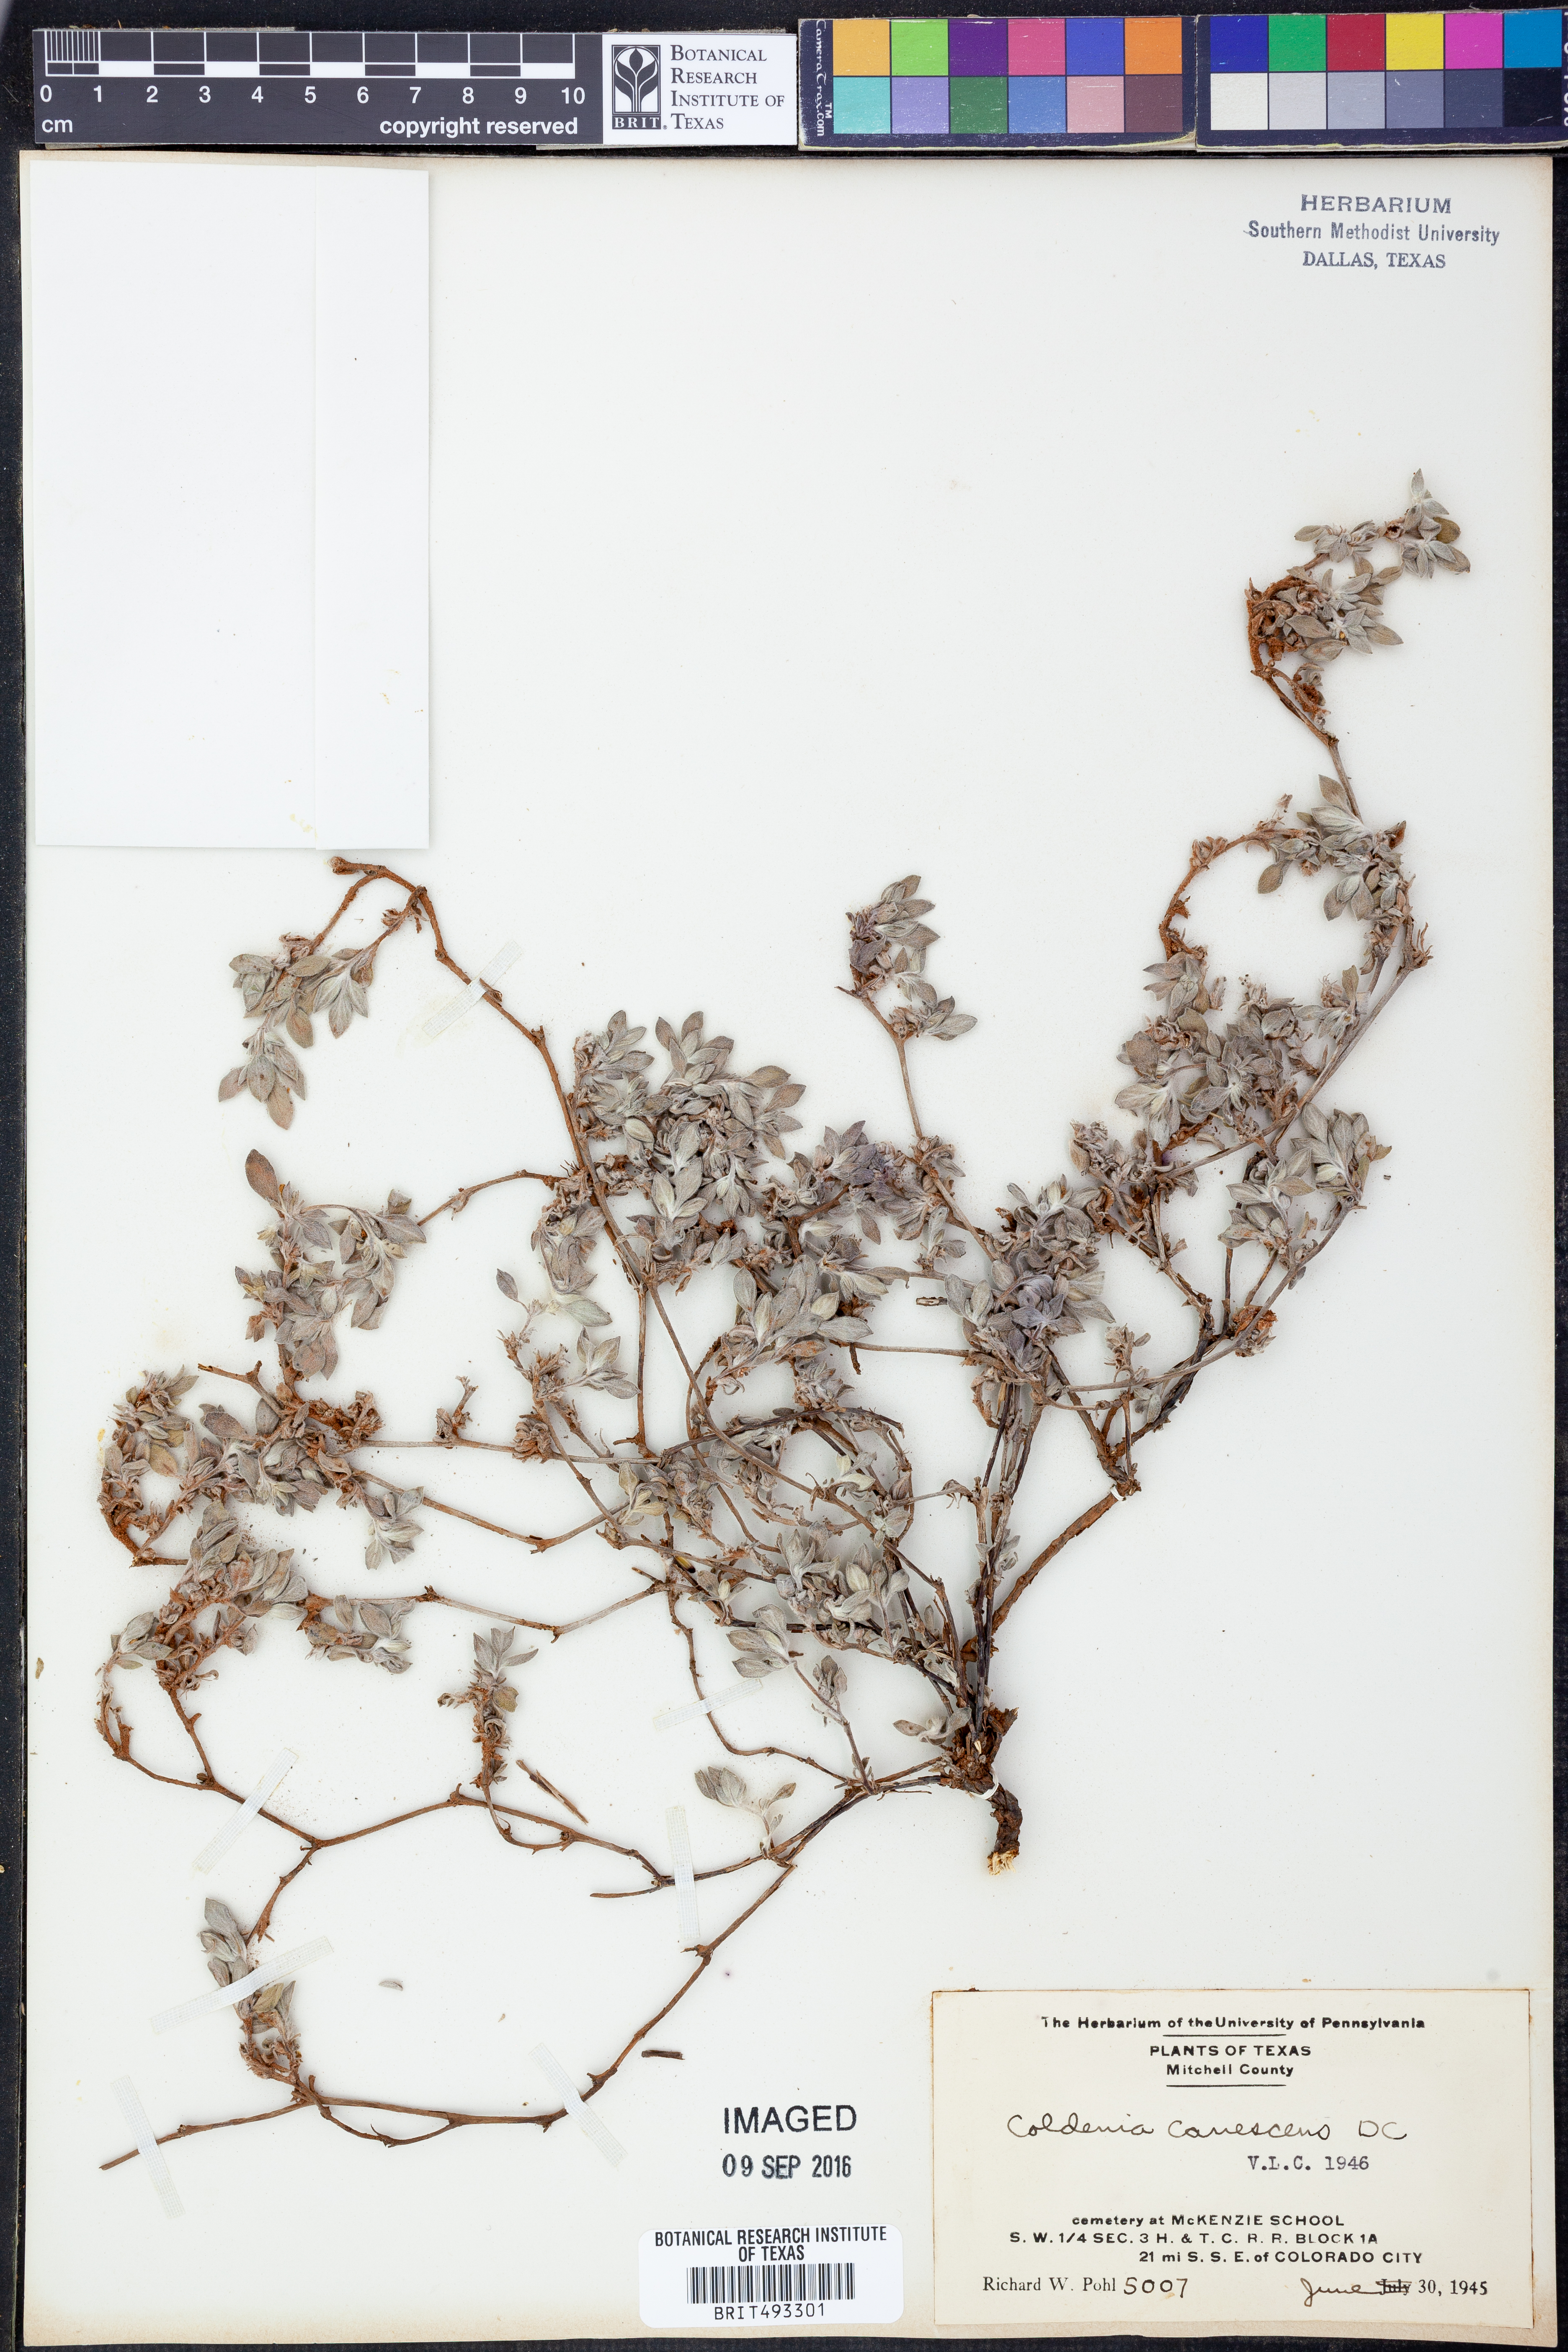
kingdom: Plantae
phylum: Tracheophyta
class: Magnoliopsida
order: Boraginales
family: Ehretiaceae
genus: Tiquilia
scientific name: Tiquilia canescens
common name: Hairy tiquilia
